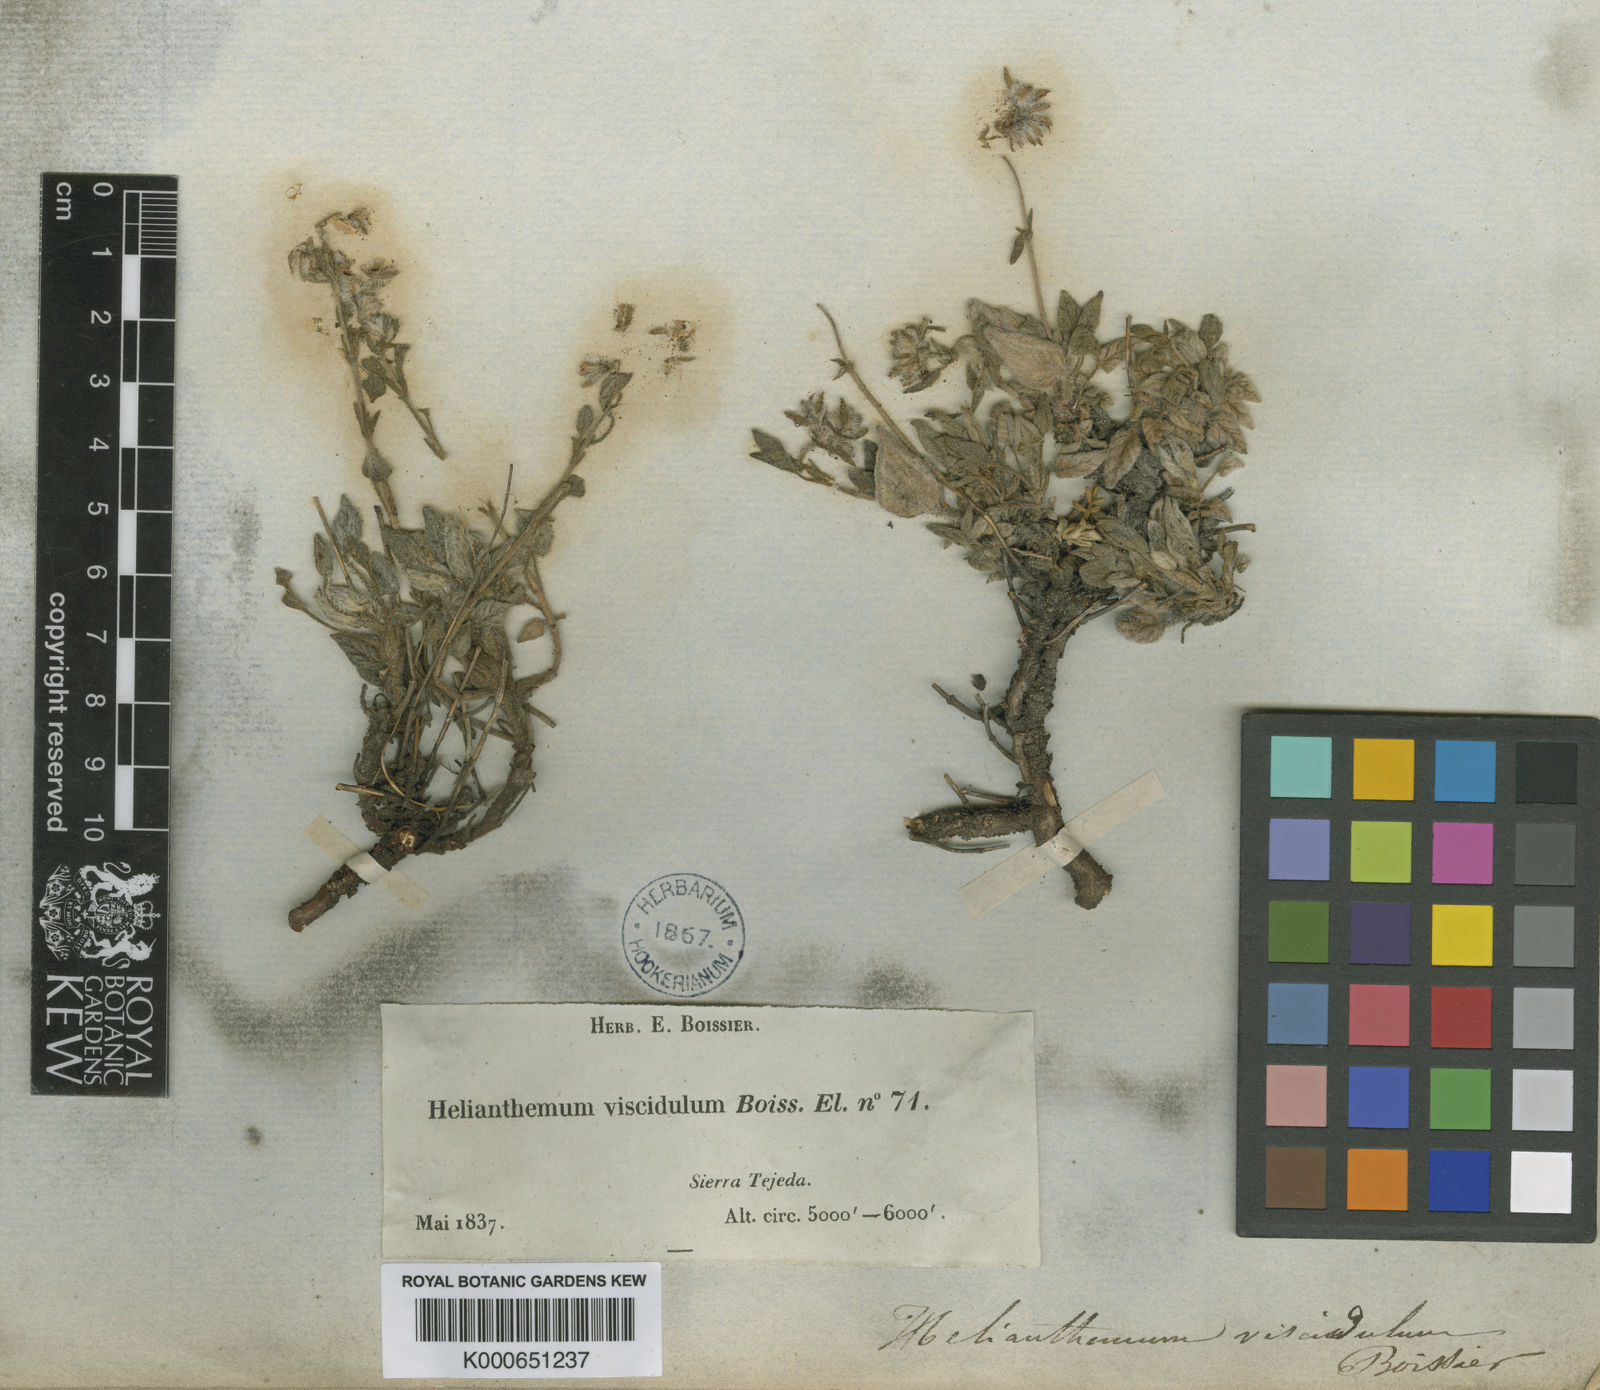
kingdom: Plantae
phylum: Tracheophyta
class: Magnoliopsida
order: Malvales
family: Cistaceae
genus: Helianthemum
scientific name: Helianthemum viscidulum
